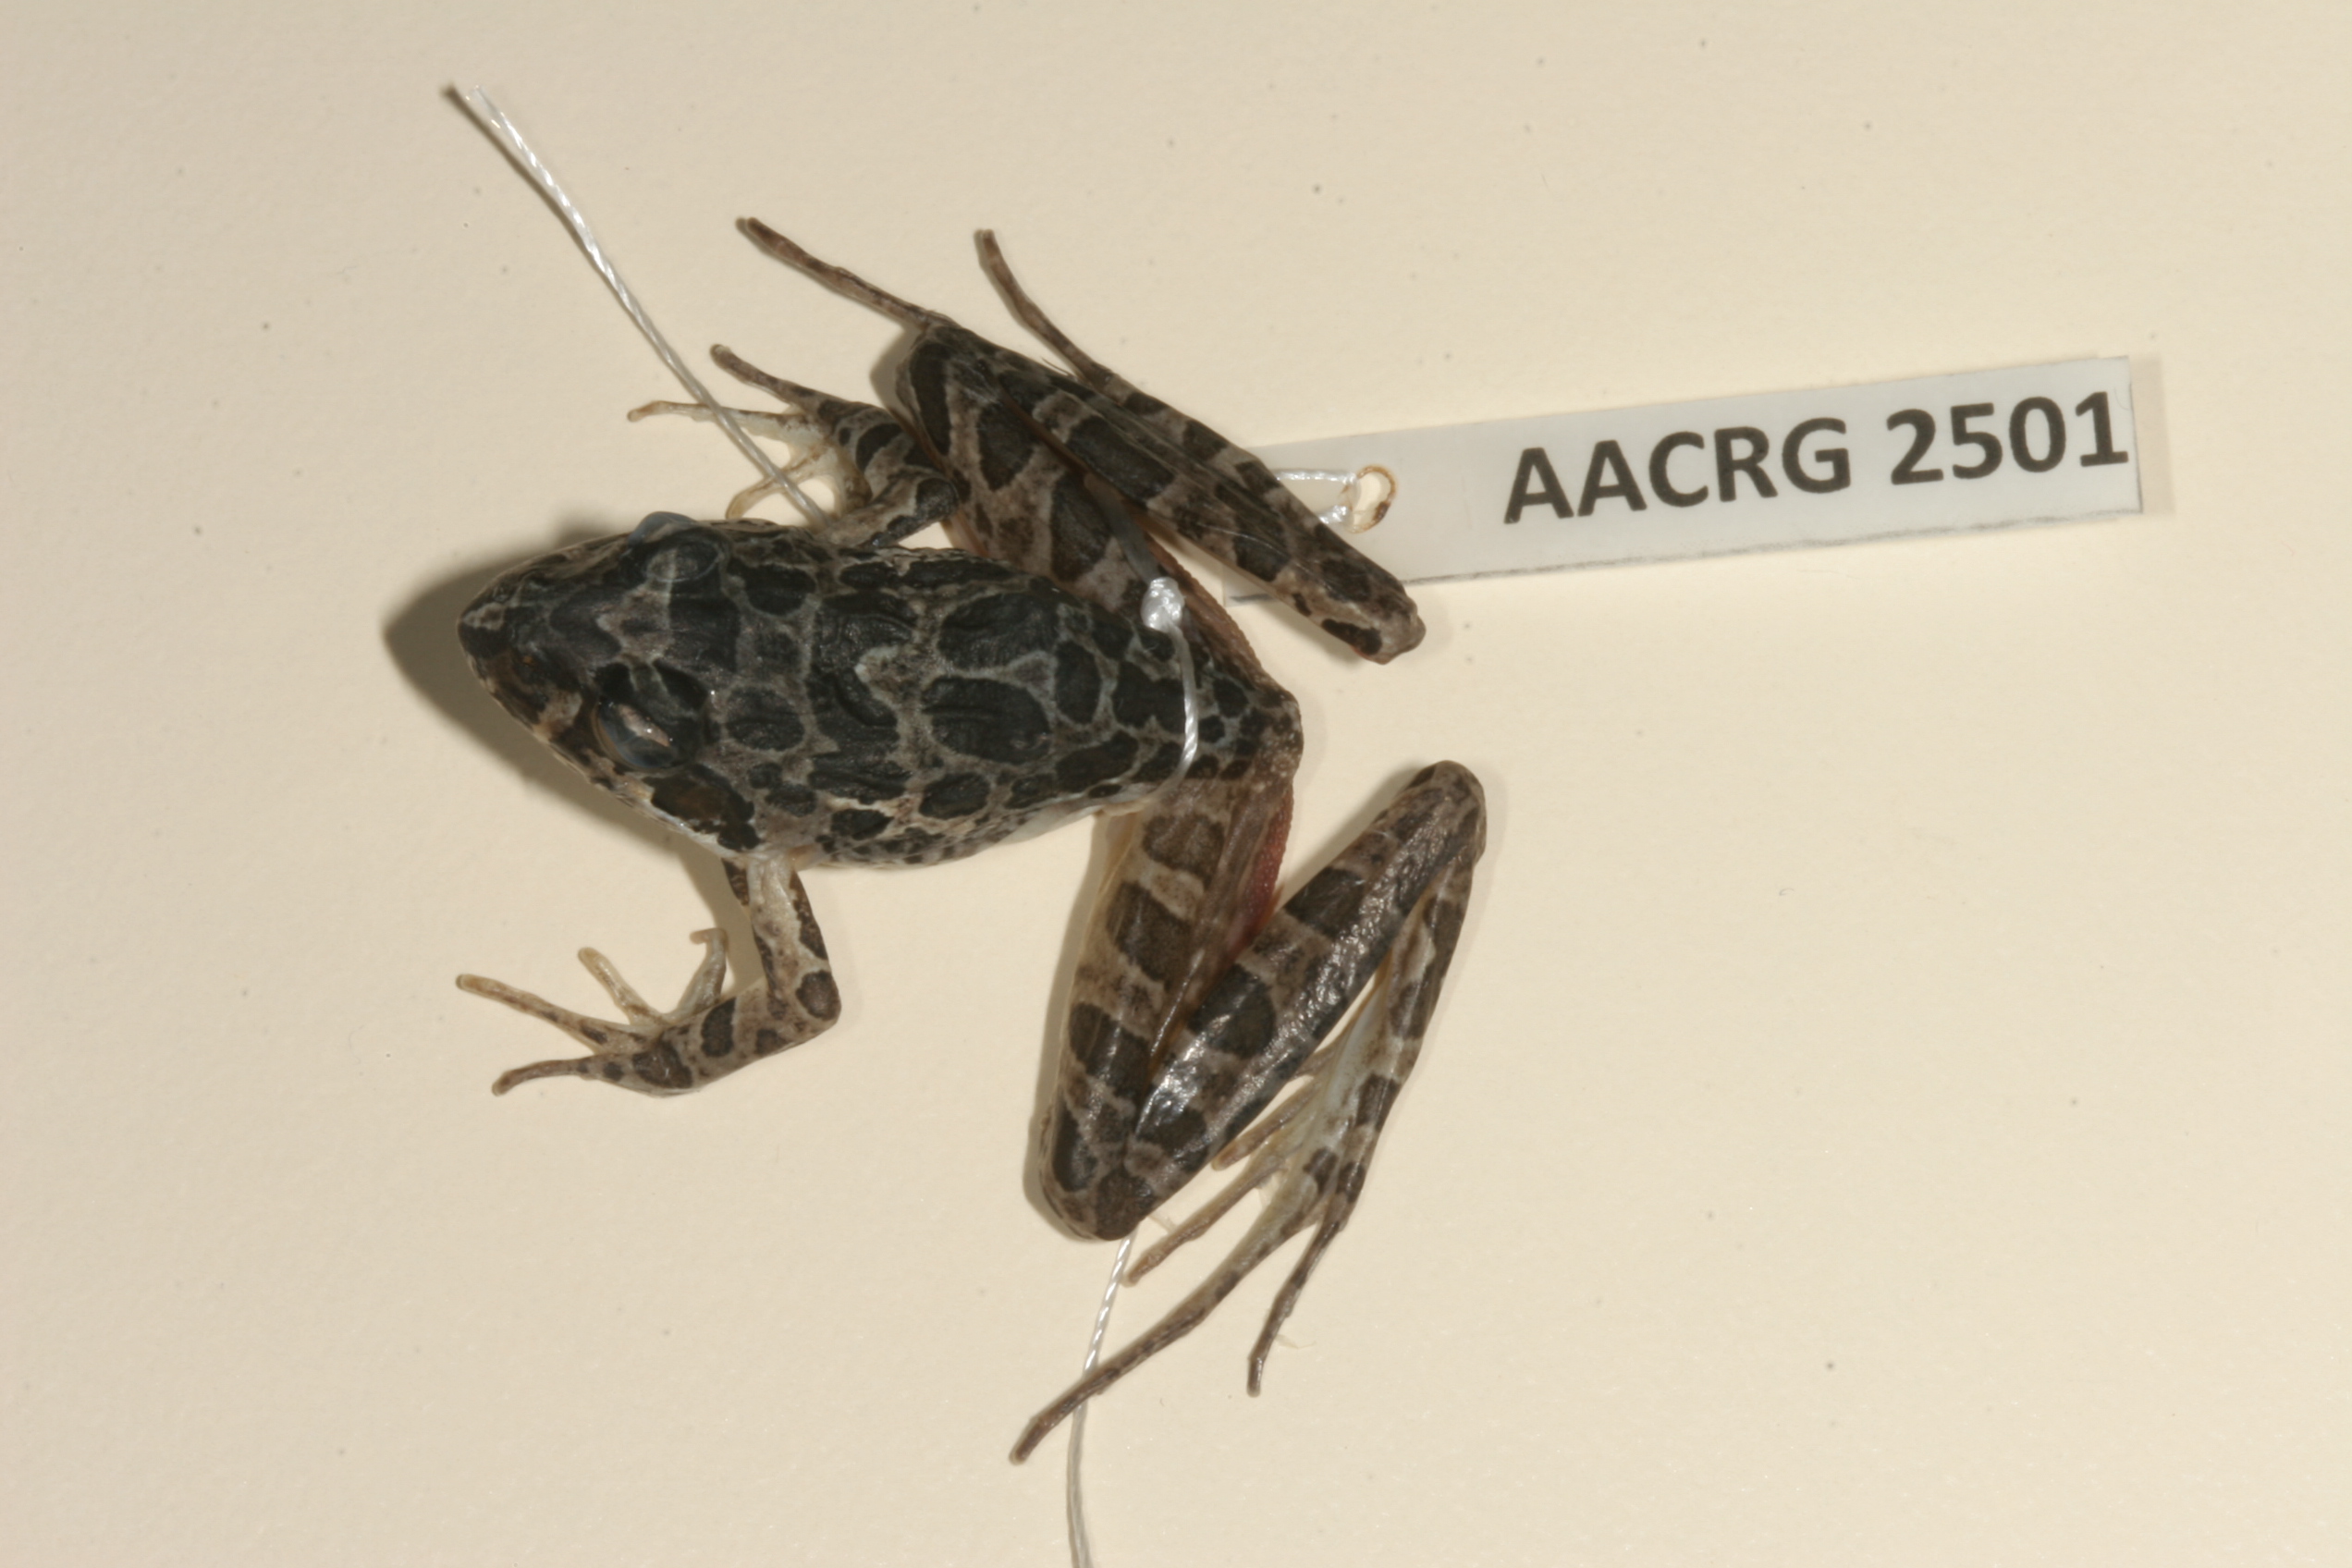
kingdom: Animalia
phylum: Chordata
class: Amphibia
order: Anura
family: Pyxicephalidae
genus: Strongylopus
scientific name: Strongylopus grayii
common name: Gray's stream frog
